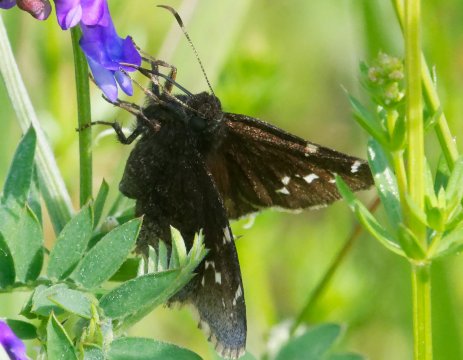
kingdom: Animalia
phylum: Arthropoda
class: Insecta
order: Lepidoptera
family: Hesperiidae
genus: Autochton
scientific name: Autochton
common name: Northern Cloudywing
